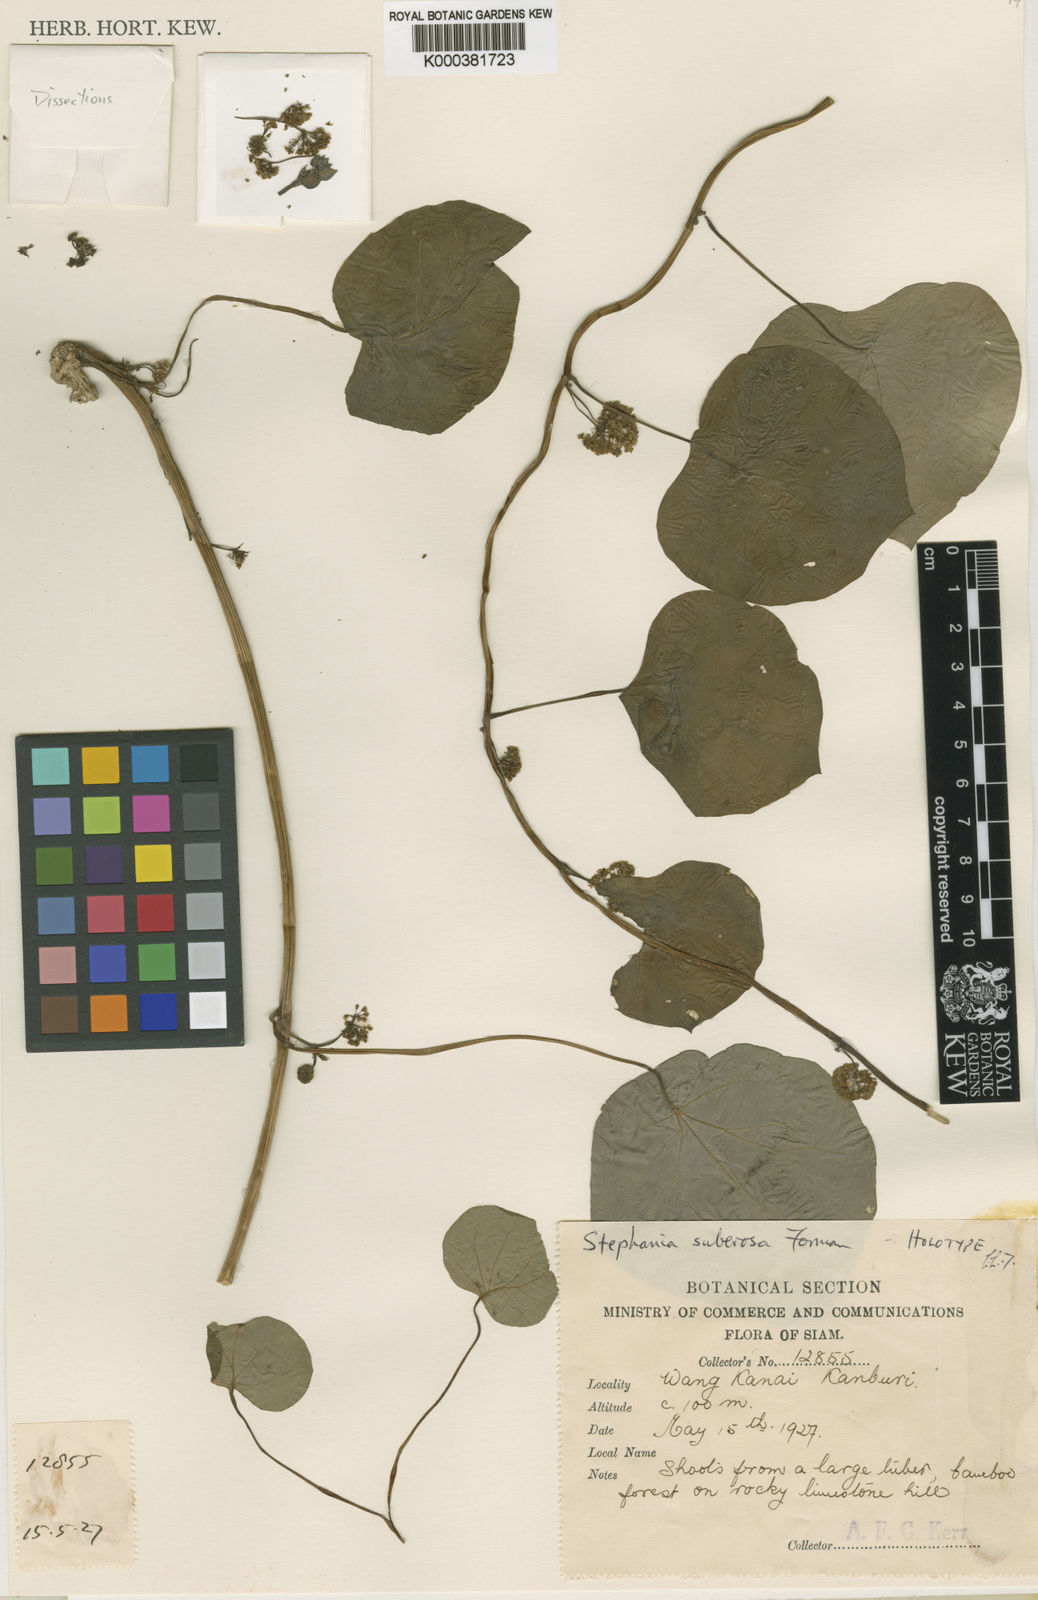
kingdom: Plantae
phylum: Tracheophyta
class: Magnoliopsida
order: Ranunculales
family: Menispermaceae
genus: Stephania
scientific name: Stephania suberosa
